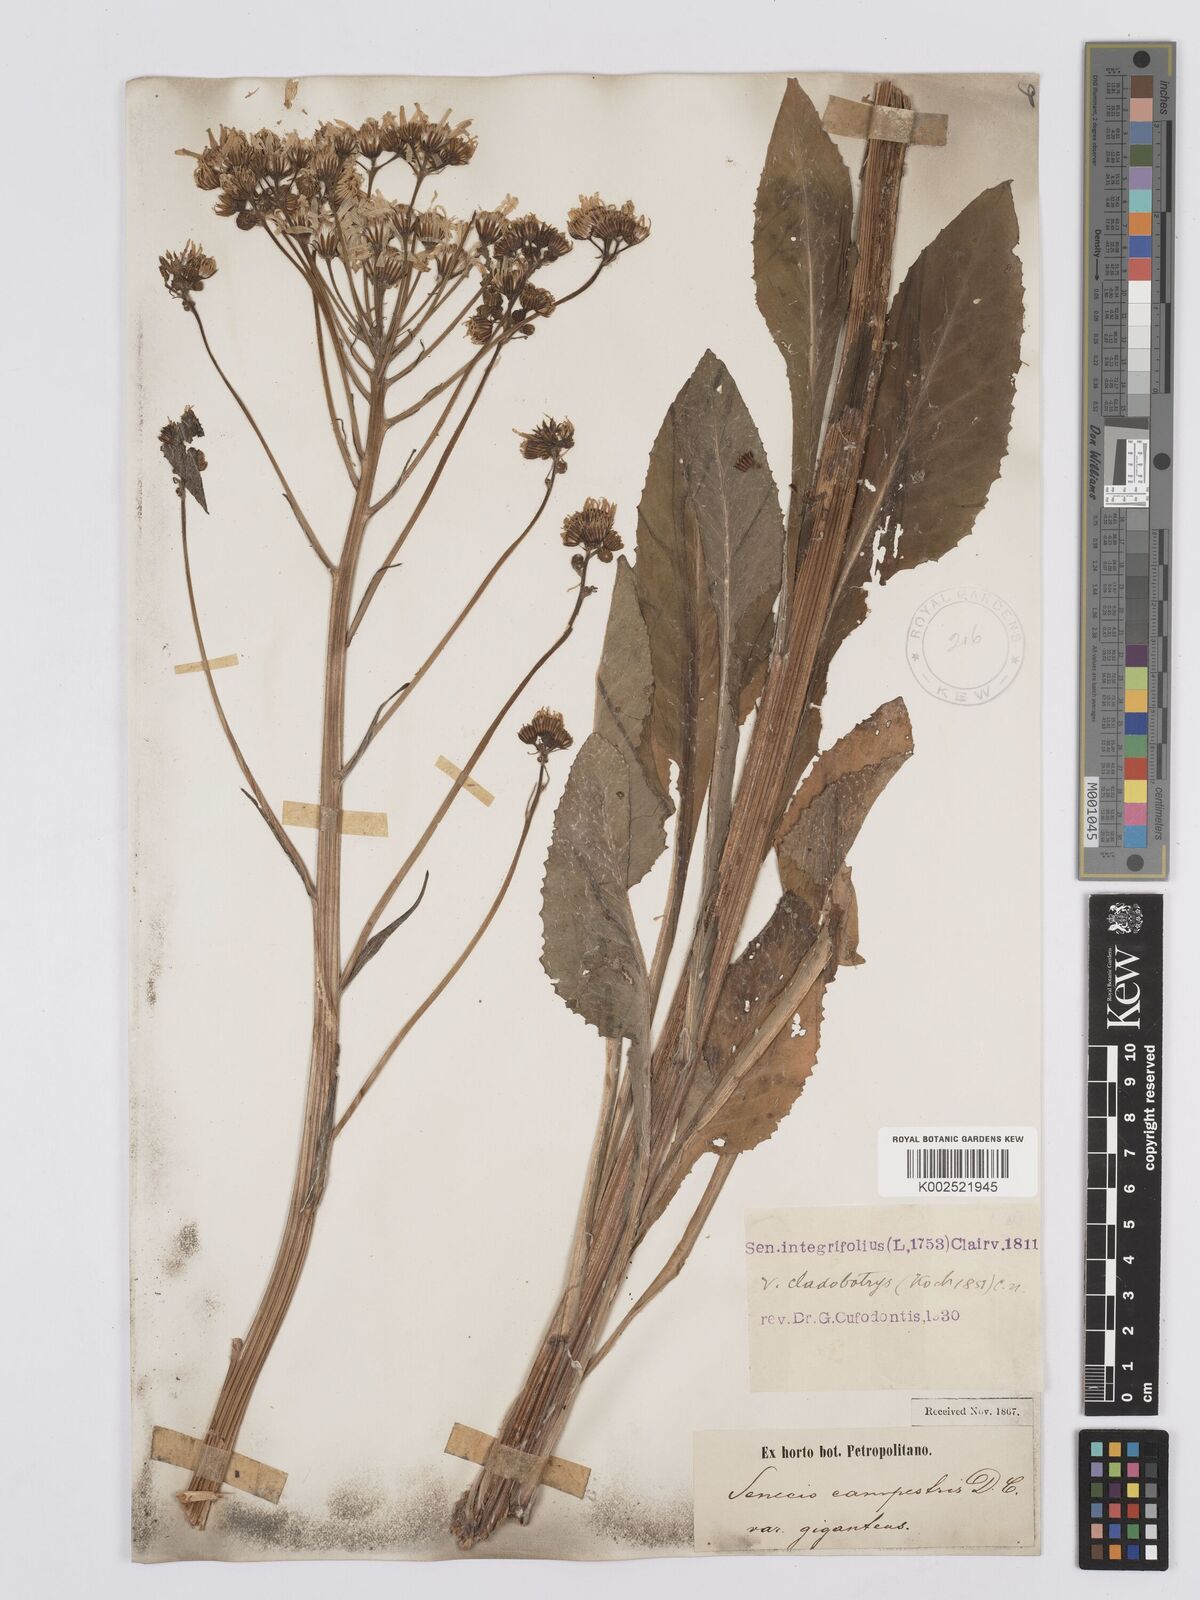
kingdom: Plantae
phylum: Tracheophyta
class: Magnoliopsida
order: Asterales
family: Asteraceae
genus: Tephroseris
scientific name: Tephroseris integrifolia
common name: Field fleawort
